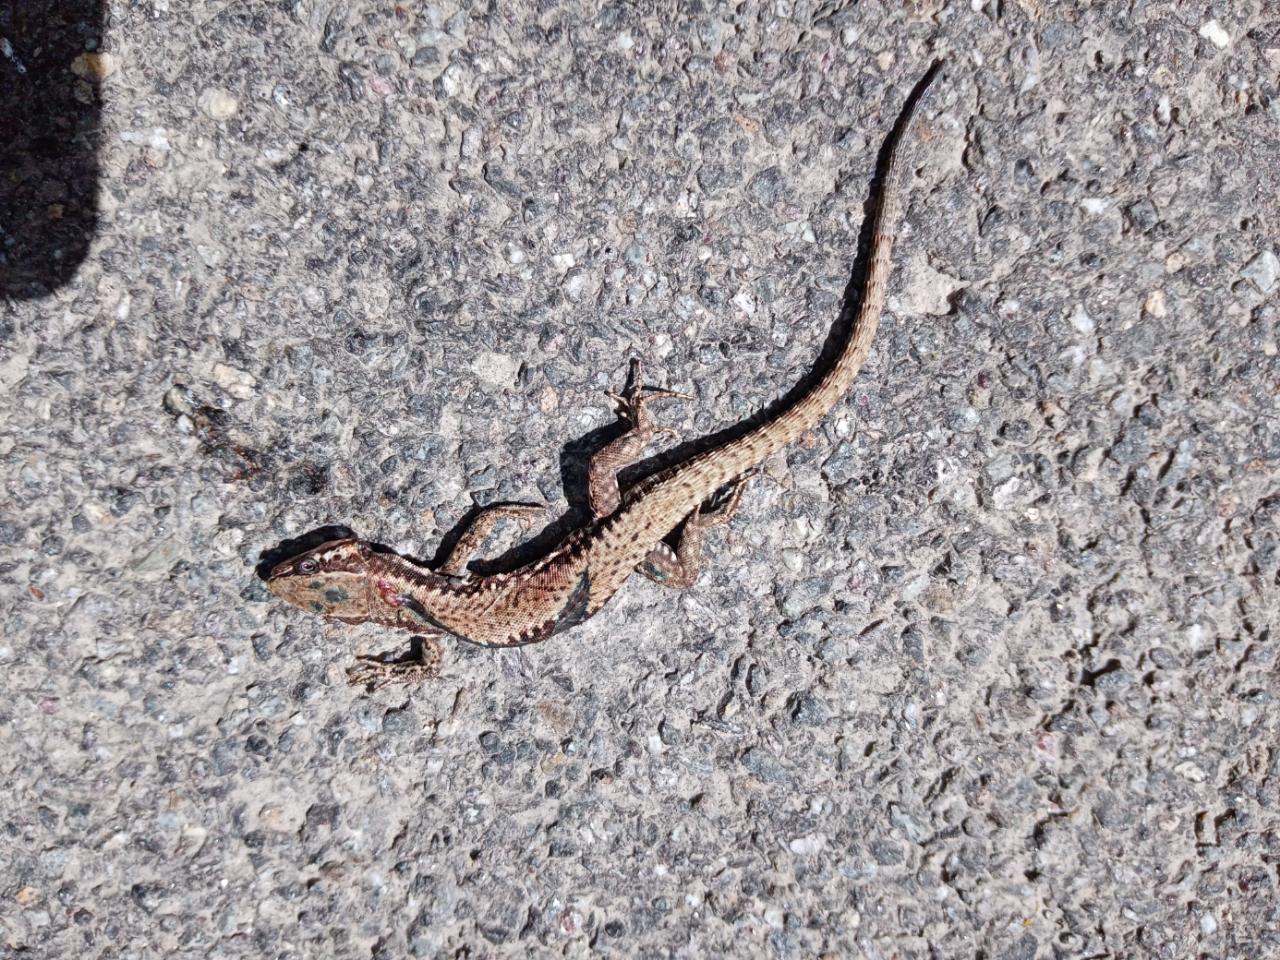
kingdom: Animalia
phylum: Chordata
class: Squamata
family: Lacertidae
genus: Podarcis
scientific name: Podarcis muralis
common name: Common wall lizard
